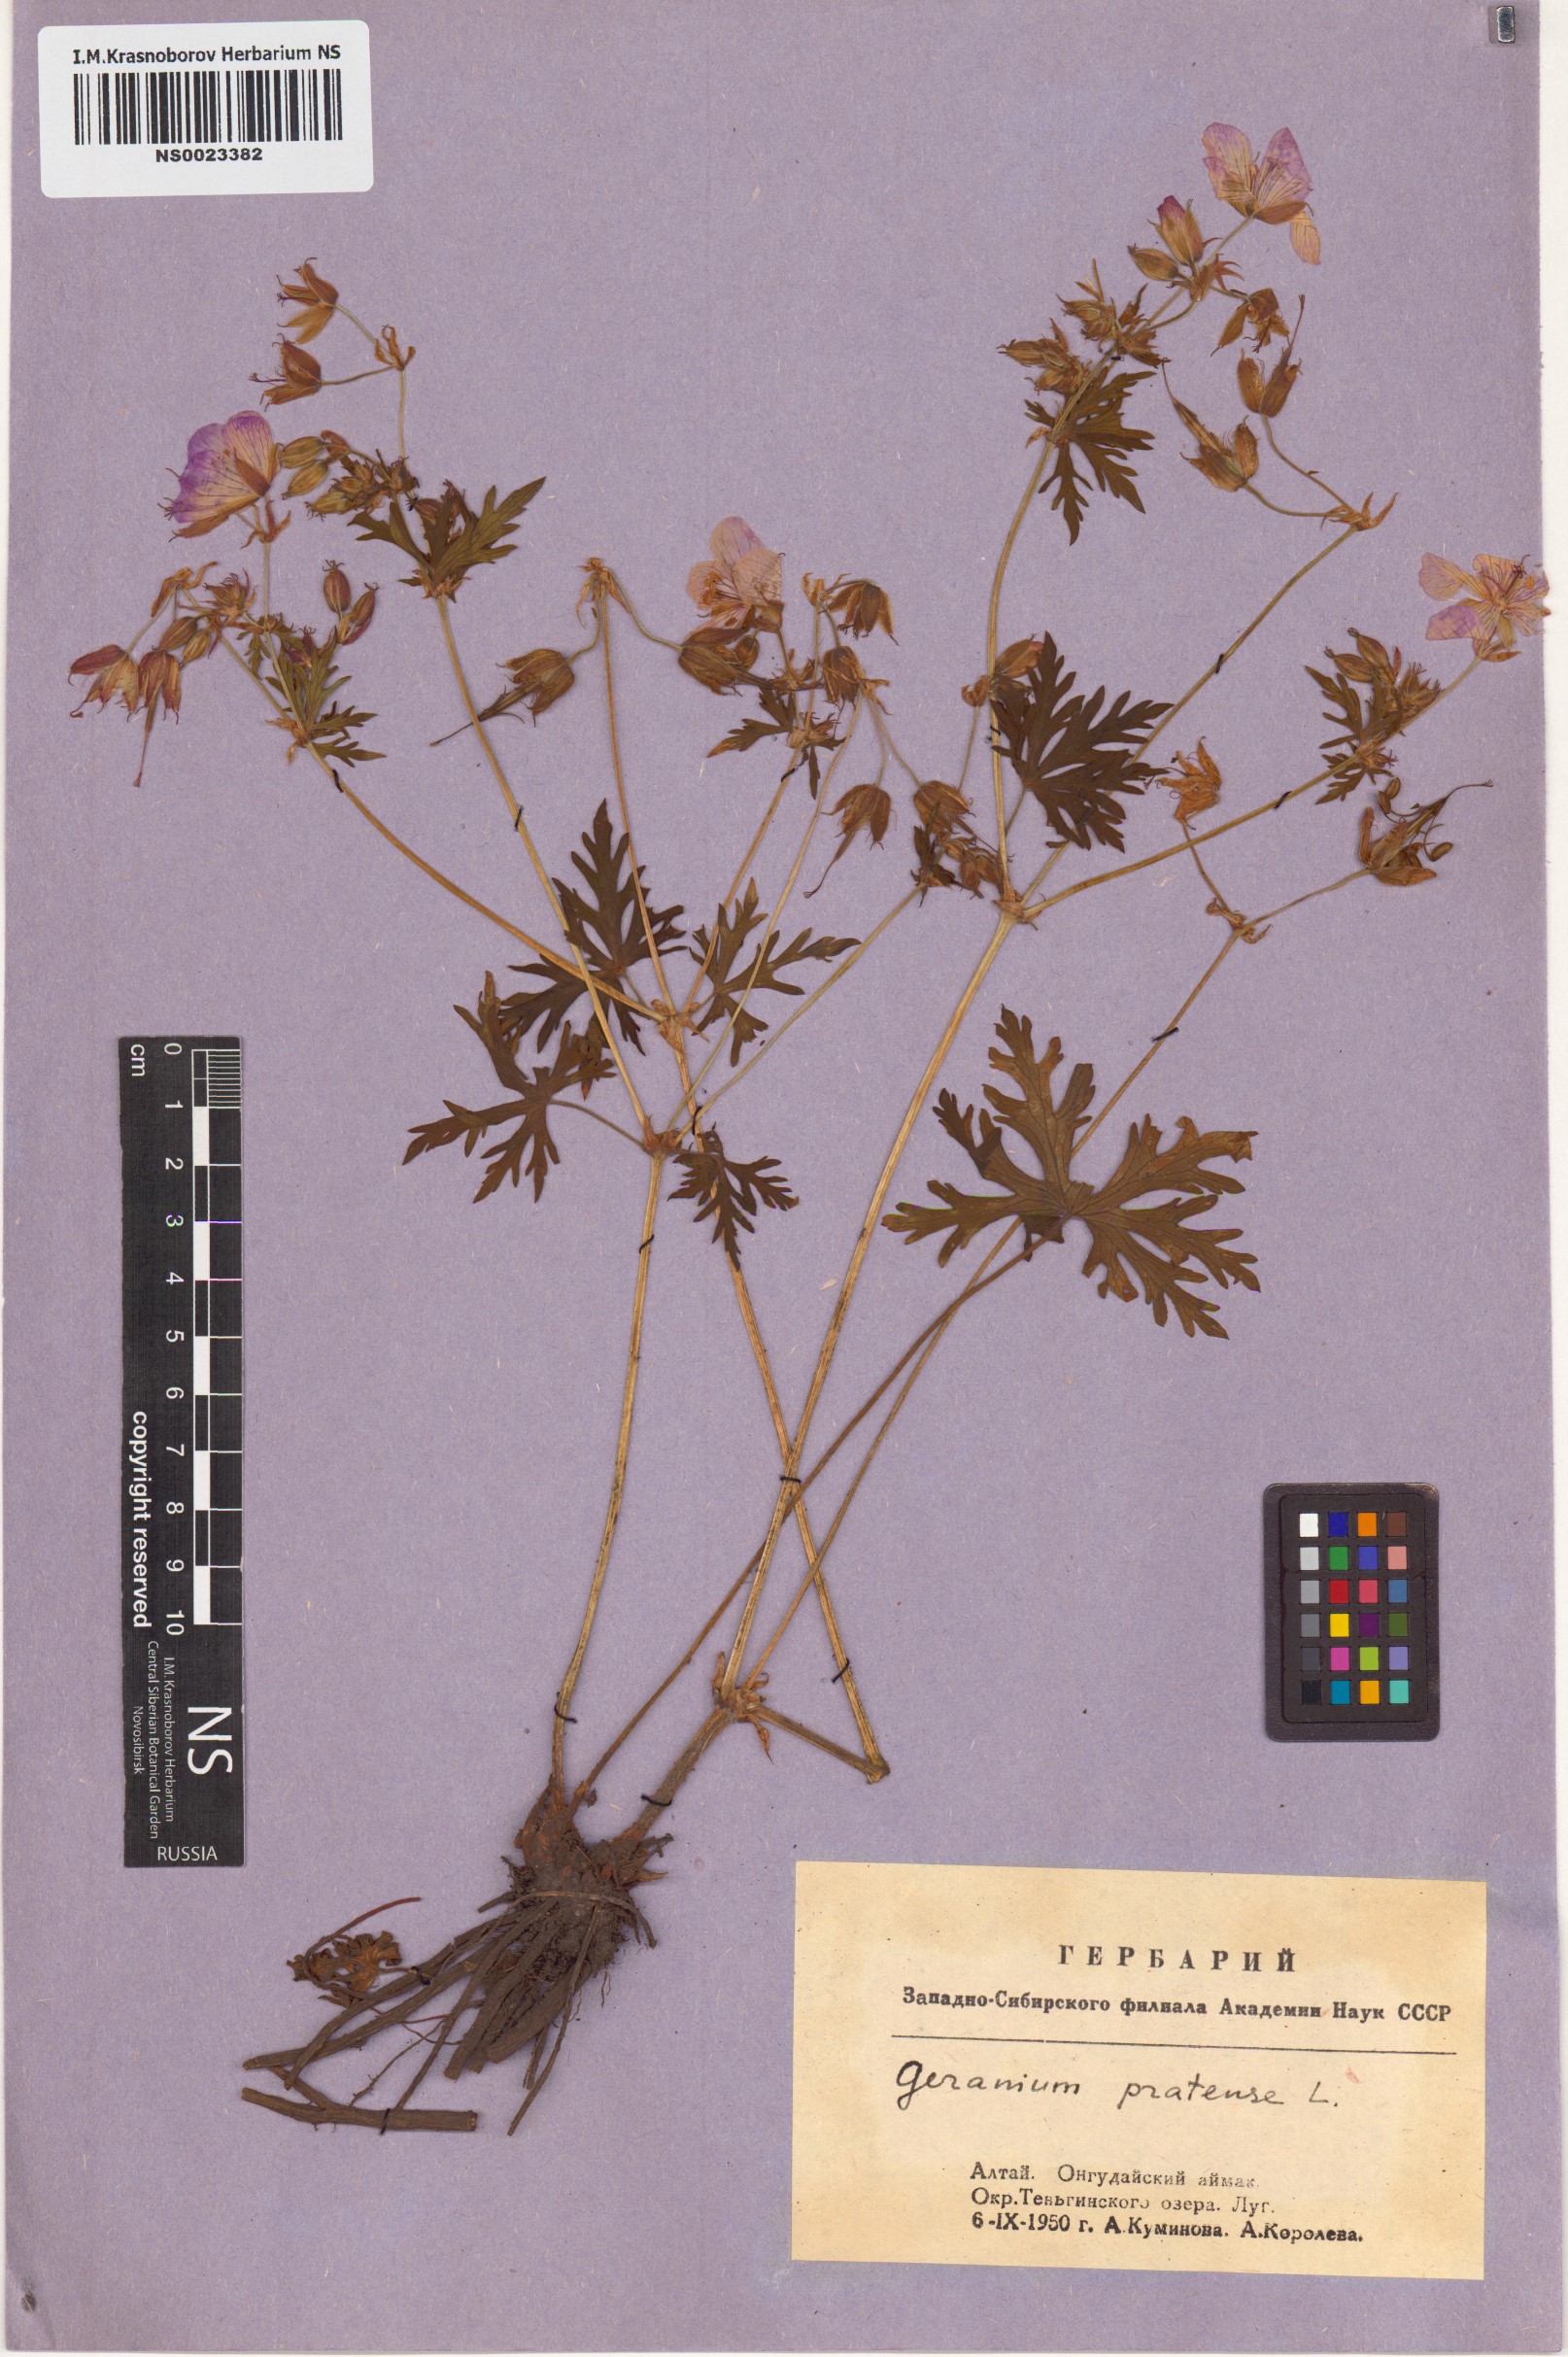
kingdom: Plantae
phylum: Tracheophyta
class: Magnoliopsida
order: Geraniales
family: Geraniaceae
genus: Geranium
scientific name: Geranium pratense
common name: Meadow crane's-bill
